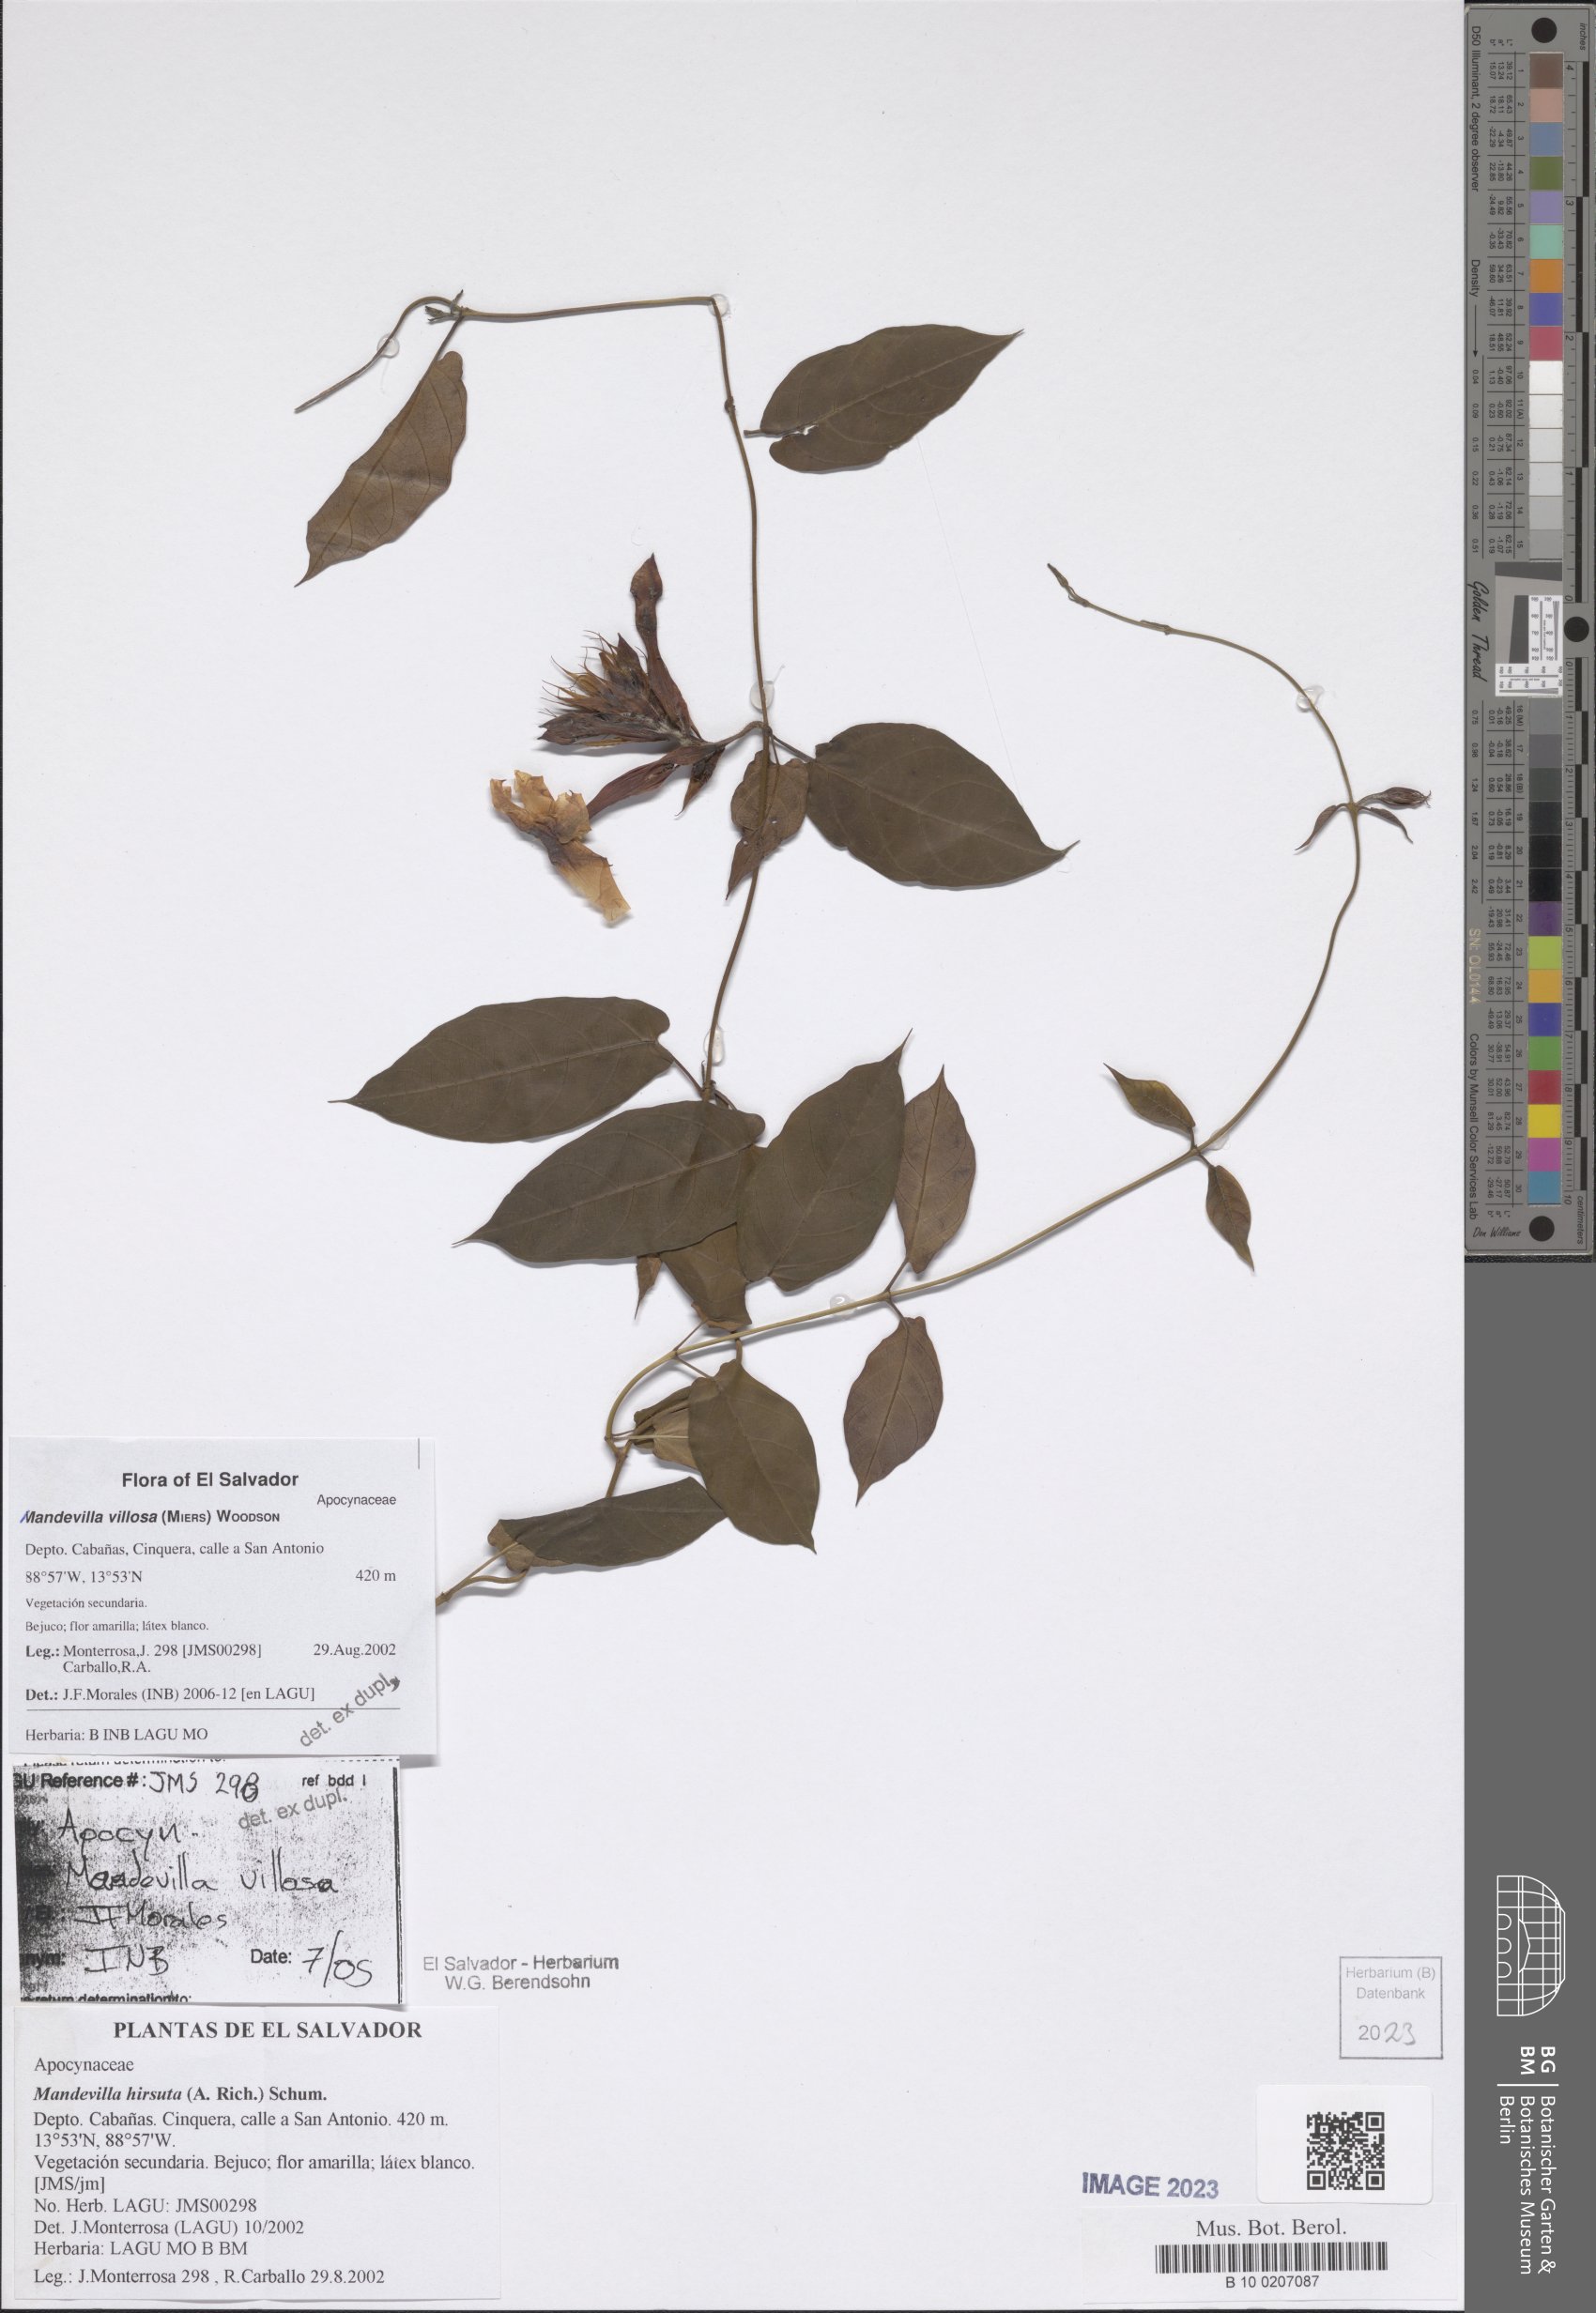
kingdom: Plantae
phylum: Tracheophyta
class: Magnoliopsida
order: Gentianales
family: Apocynaceae
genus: Mandevilla
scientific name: Mandevilla villosa
